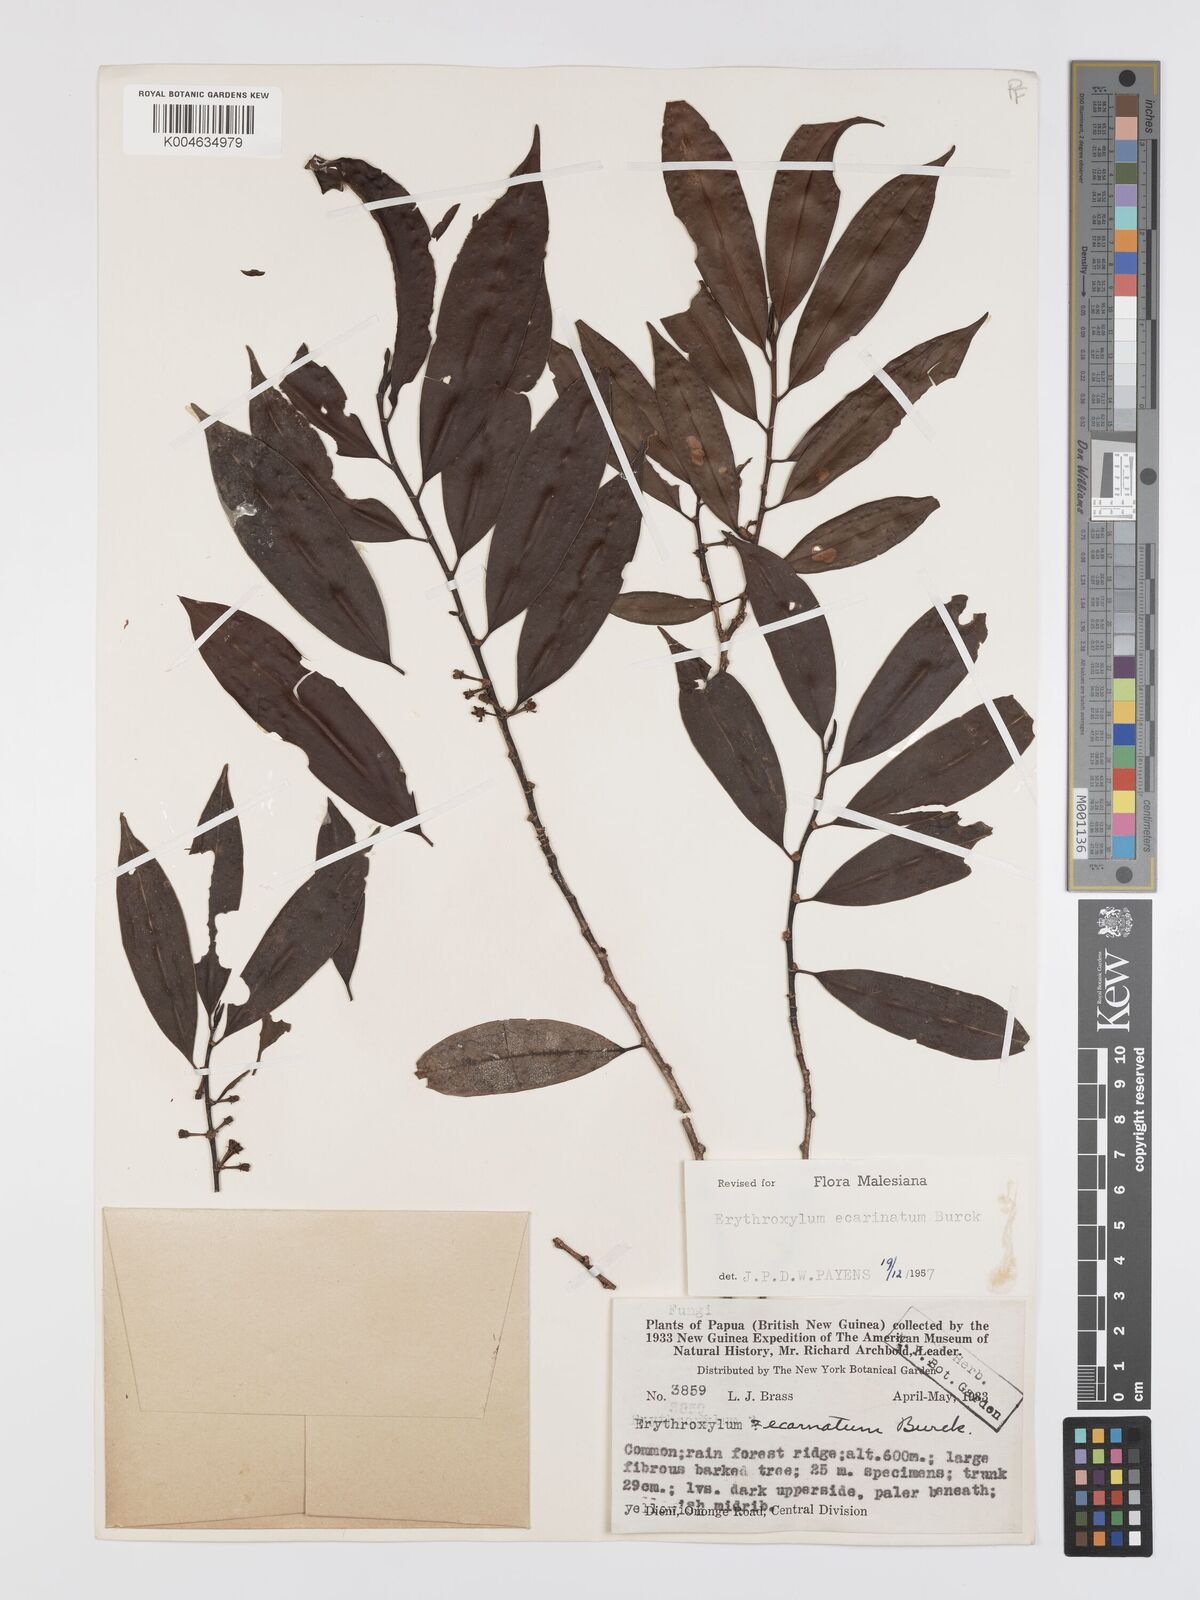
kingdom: Plantae
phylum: Tracheophyta
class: Magnoliopsida
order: Malpighiales
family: Erythroxylaceae
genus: Erythroxylum
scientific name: Erythroxylum ecarinatum
